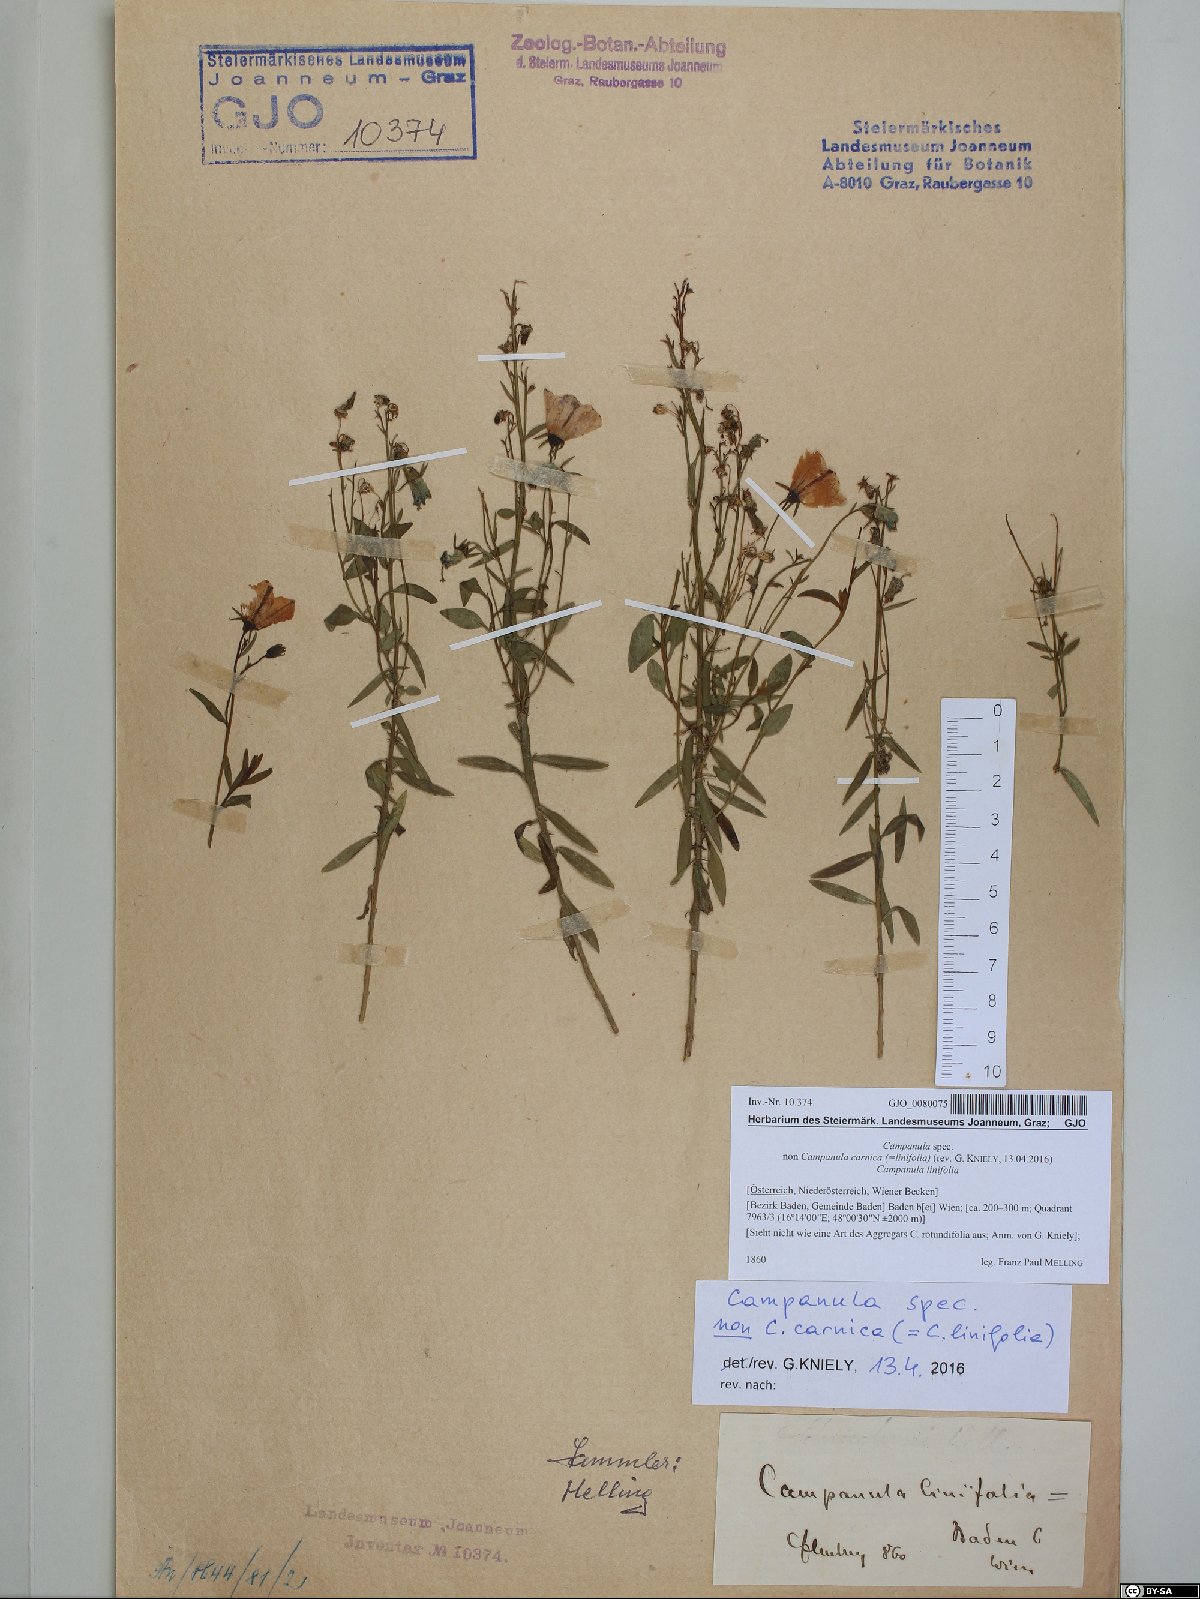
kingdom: Plantae
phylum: Tracheophyta
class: Magnoliopsida
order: Asterales
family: Campanulaceae
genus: Campanula
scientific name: Campanula
